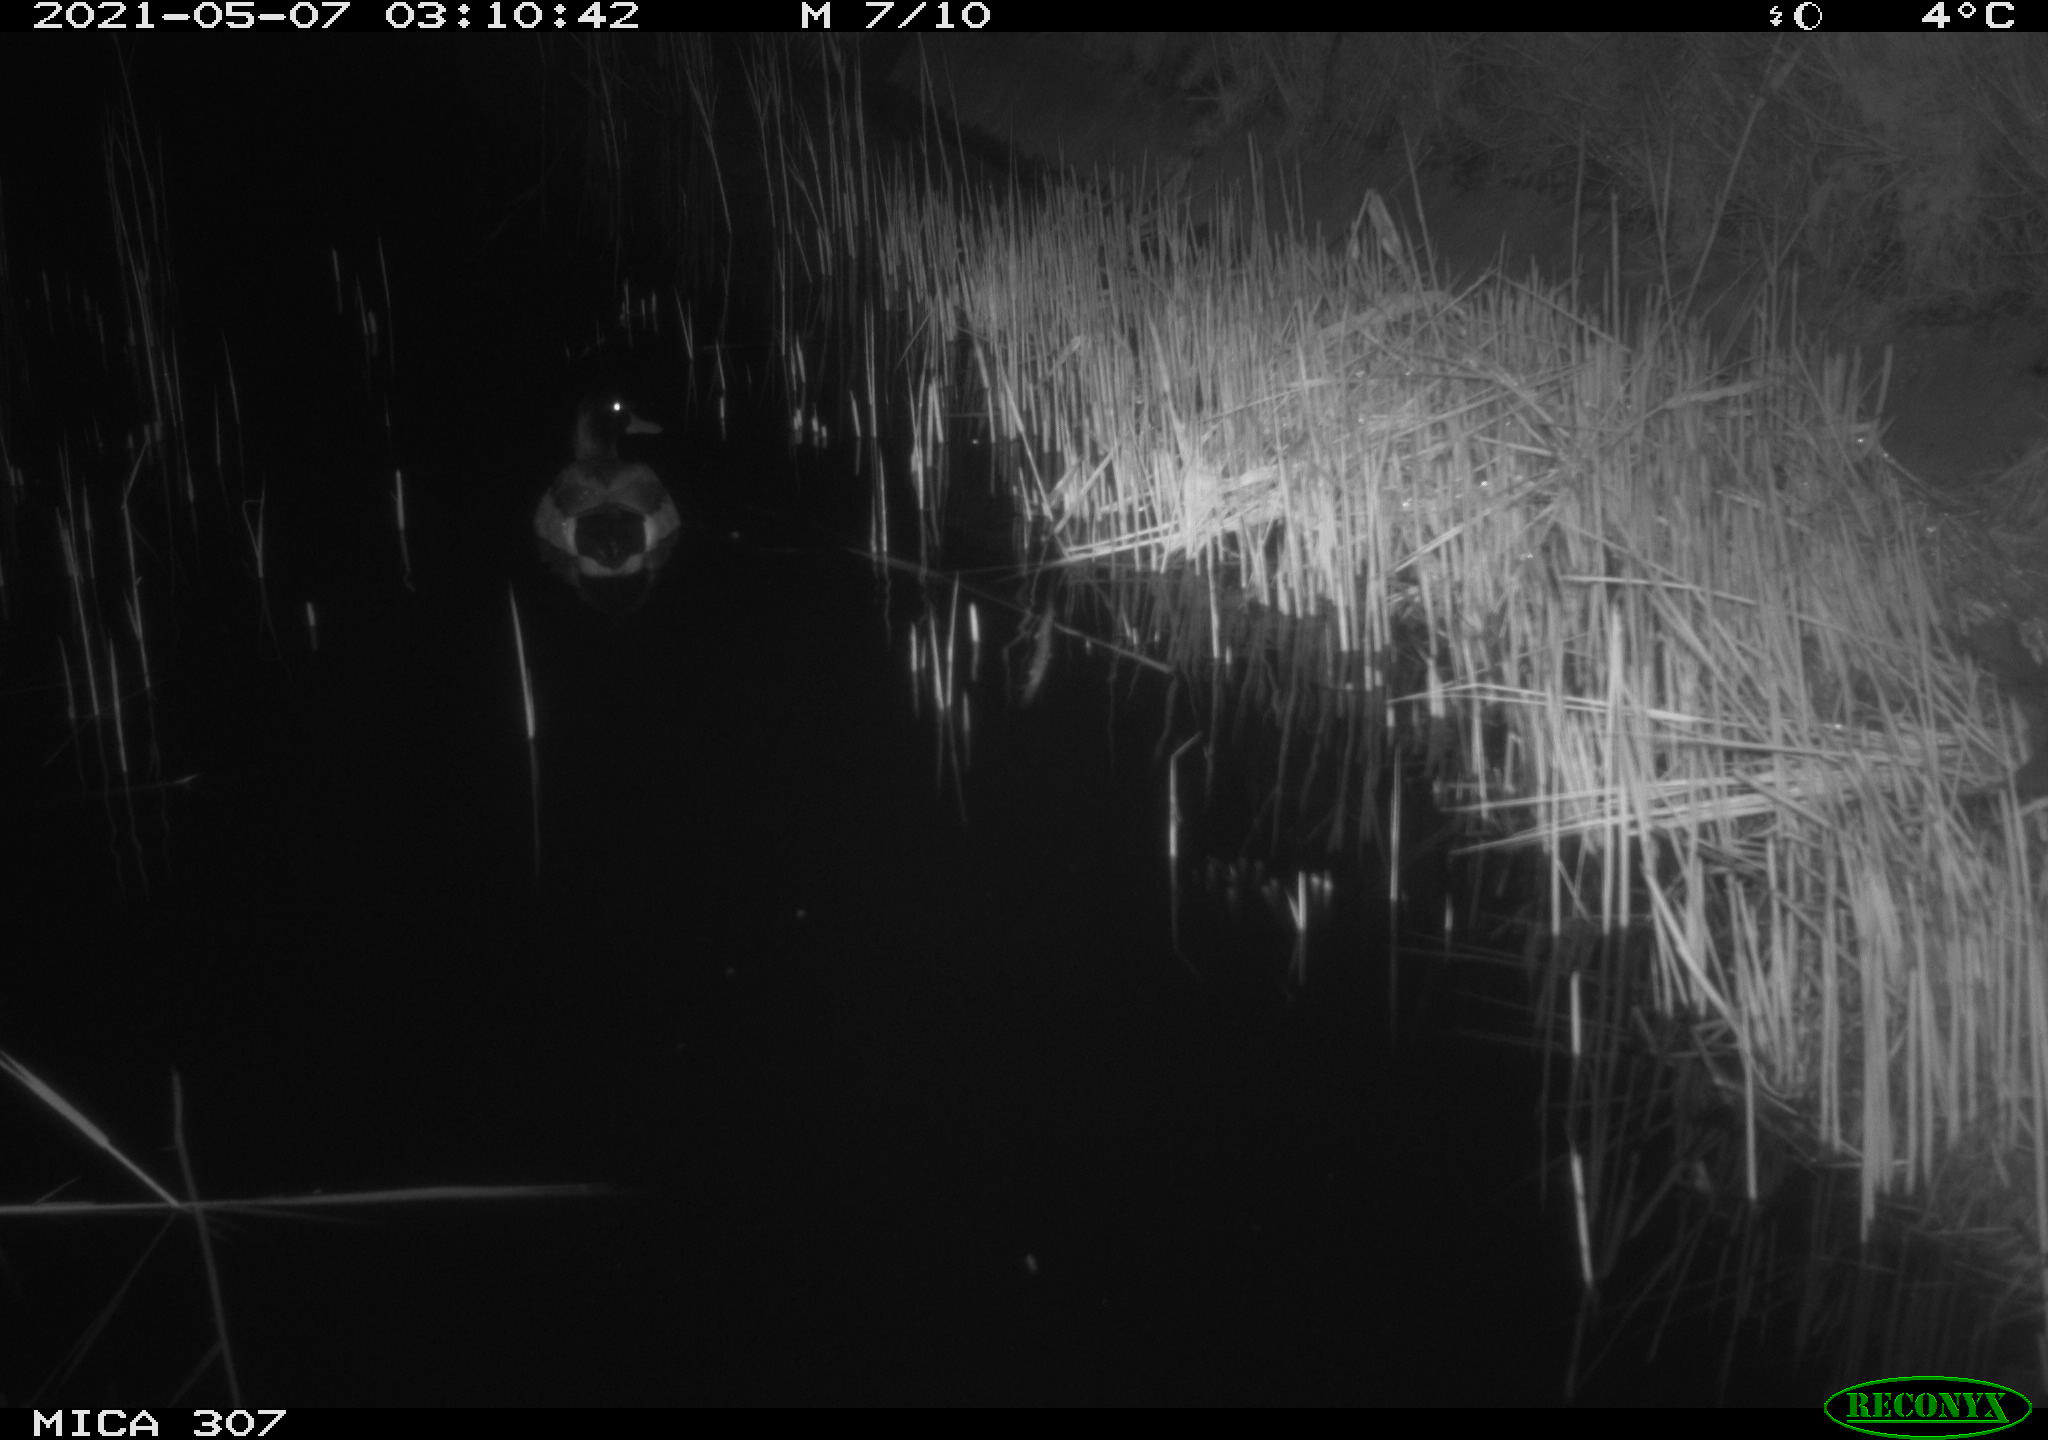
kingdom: Animalia
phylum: Chordata
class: Aves
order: Anseriformes
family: Anatidae
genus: Anas
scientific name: Anas platyrhynchos
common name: Mallard
